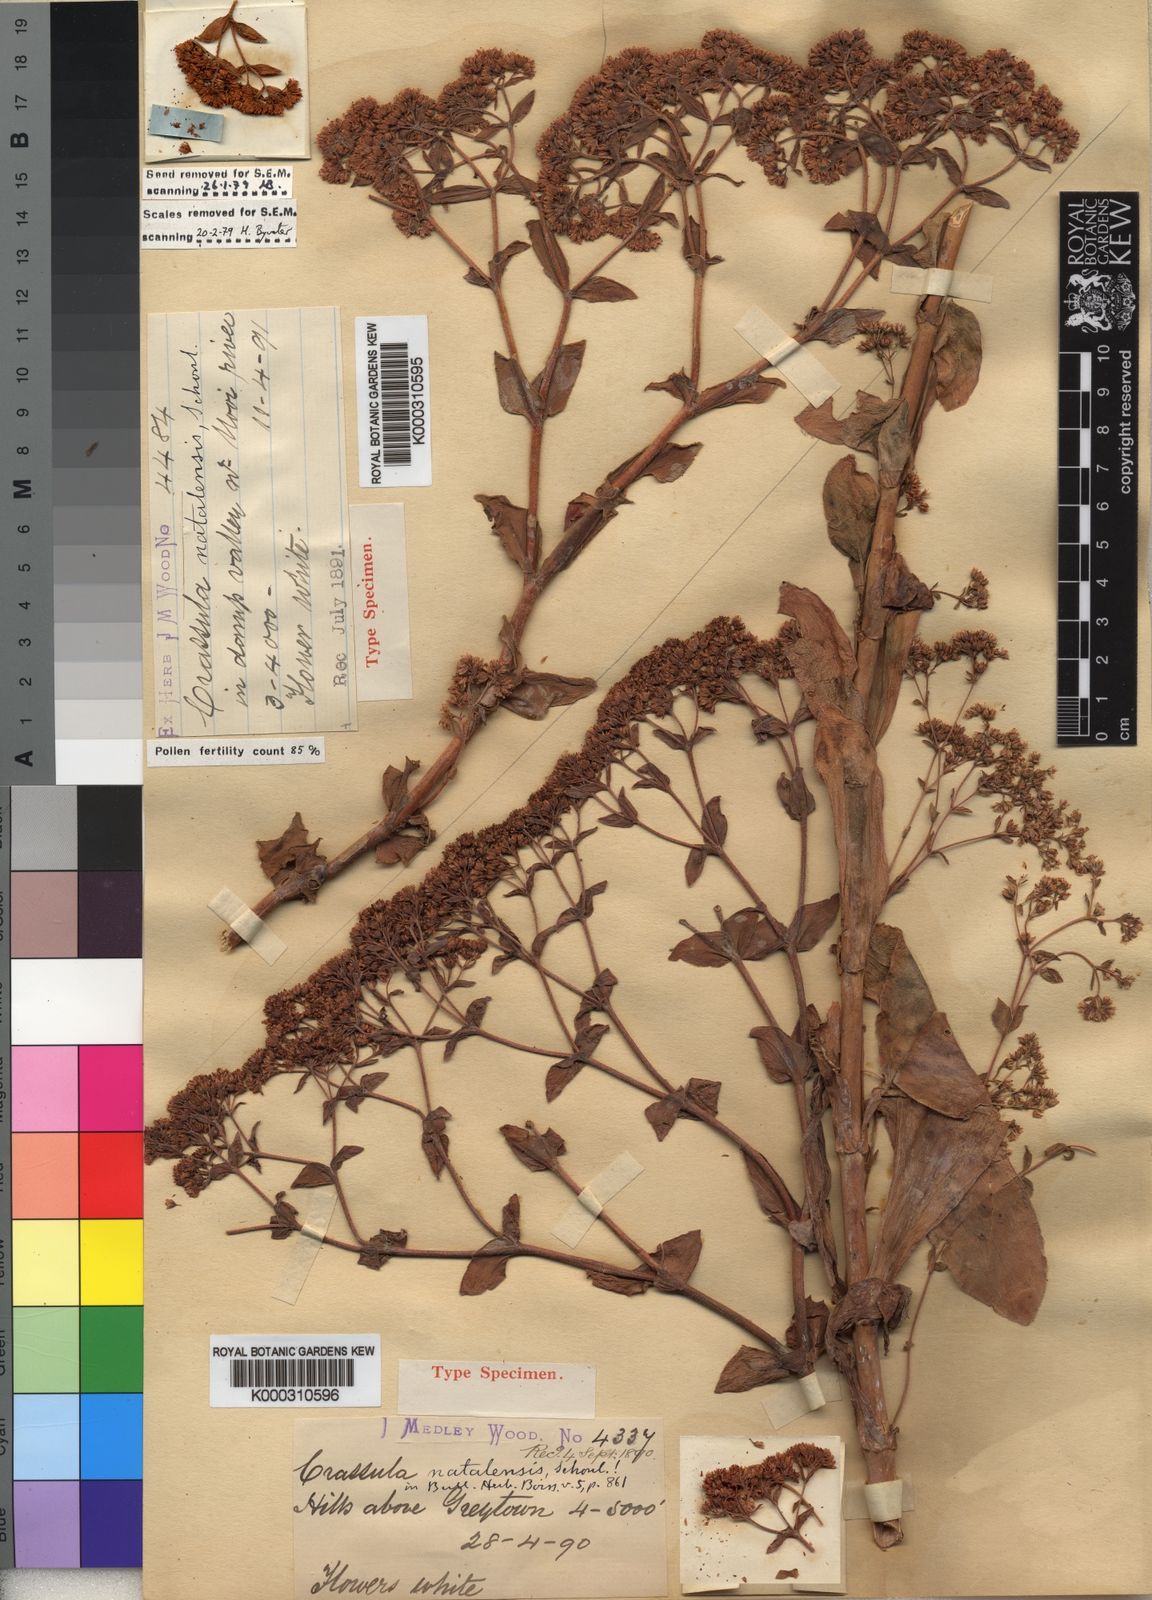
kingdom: Plantae
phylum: Tracheophyta
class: Magnoliopsida
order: Saxifragales
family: Crassulaceae
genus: Crassula
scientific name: Crassula
